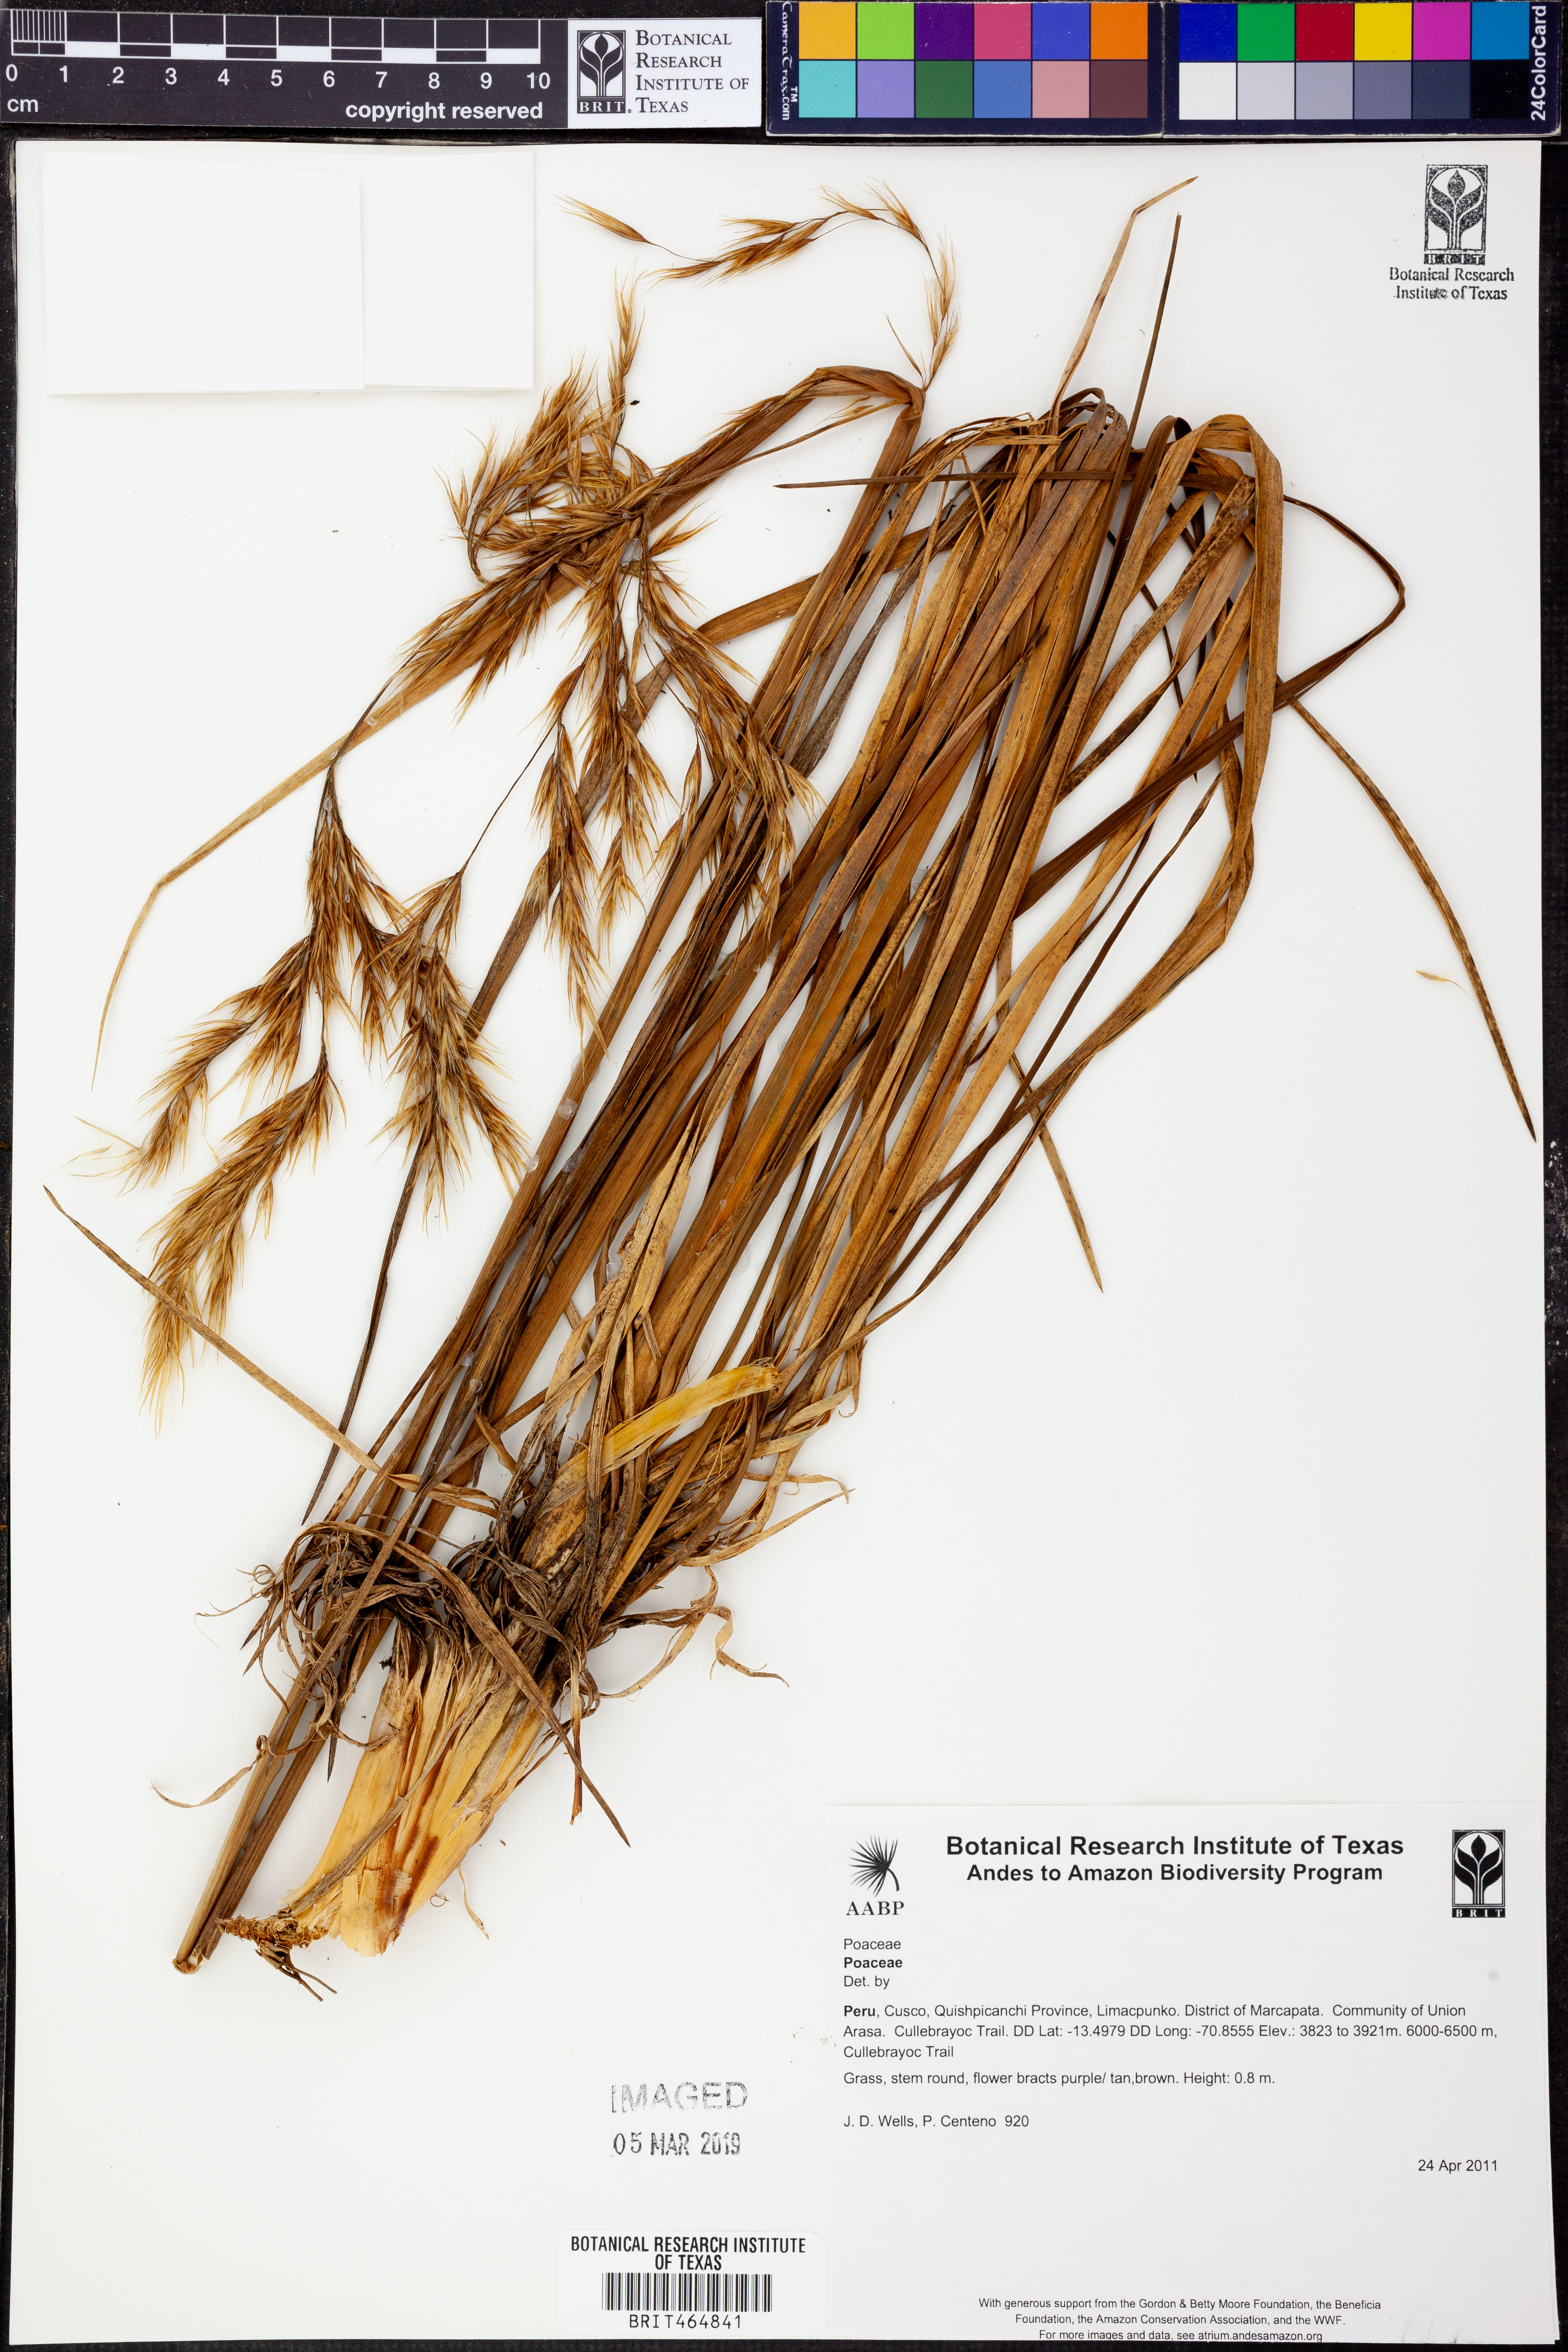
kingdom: Plantae
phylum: Tracheophyta
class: Liliopsida
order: Poales
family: Poaceae
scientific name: Poaceae
